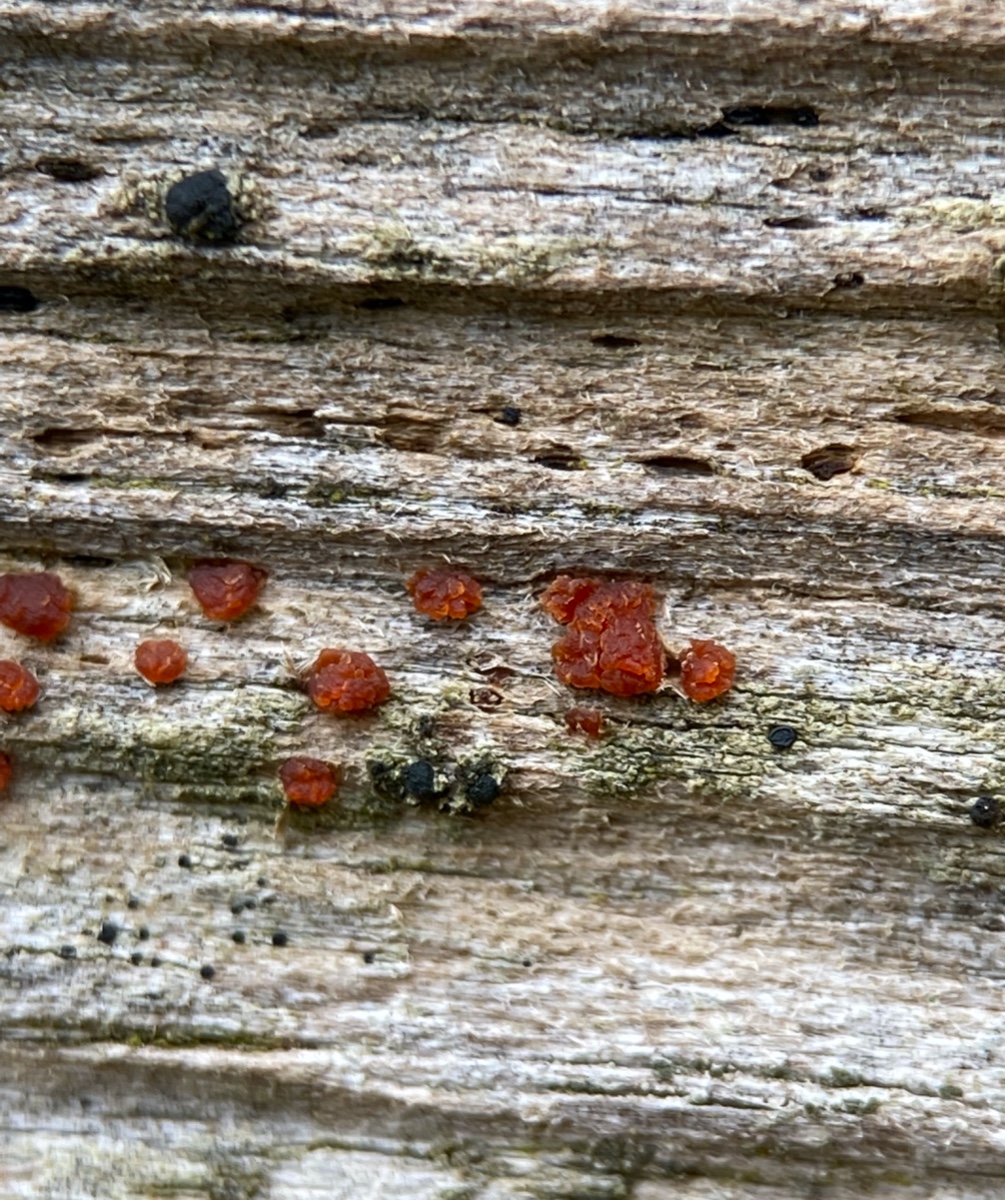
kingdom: Fungi
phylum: Basidiomycota
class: Dacrymycetes
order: Dacrymycetales
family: Dacrymycetaceae
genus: Dacrymyces
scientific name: Dacrymyces
